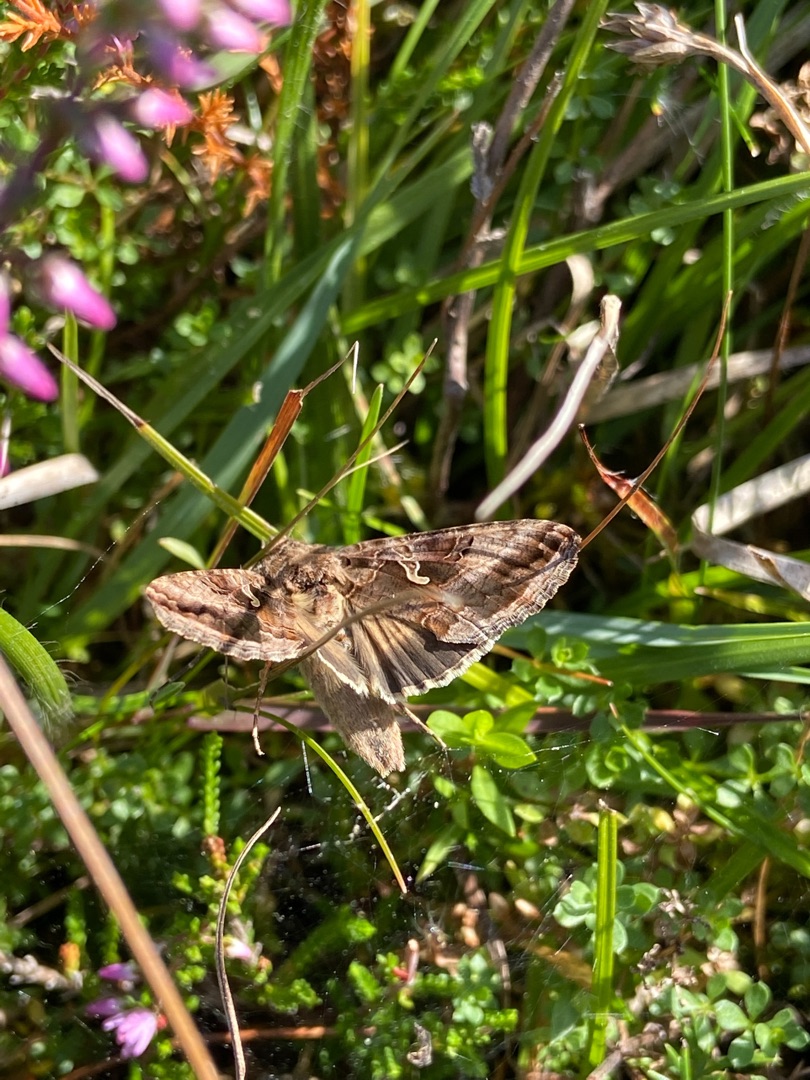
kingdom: Animalia
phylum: Arthropoda
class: Insecta
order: Lepidoptera
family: Noctuidae
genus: Autographa
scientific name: Autographa gamma
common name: Gammaugle
